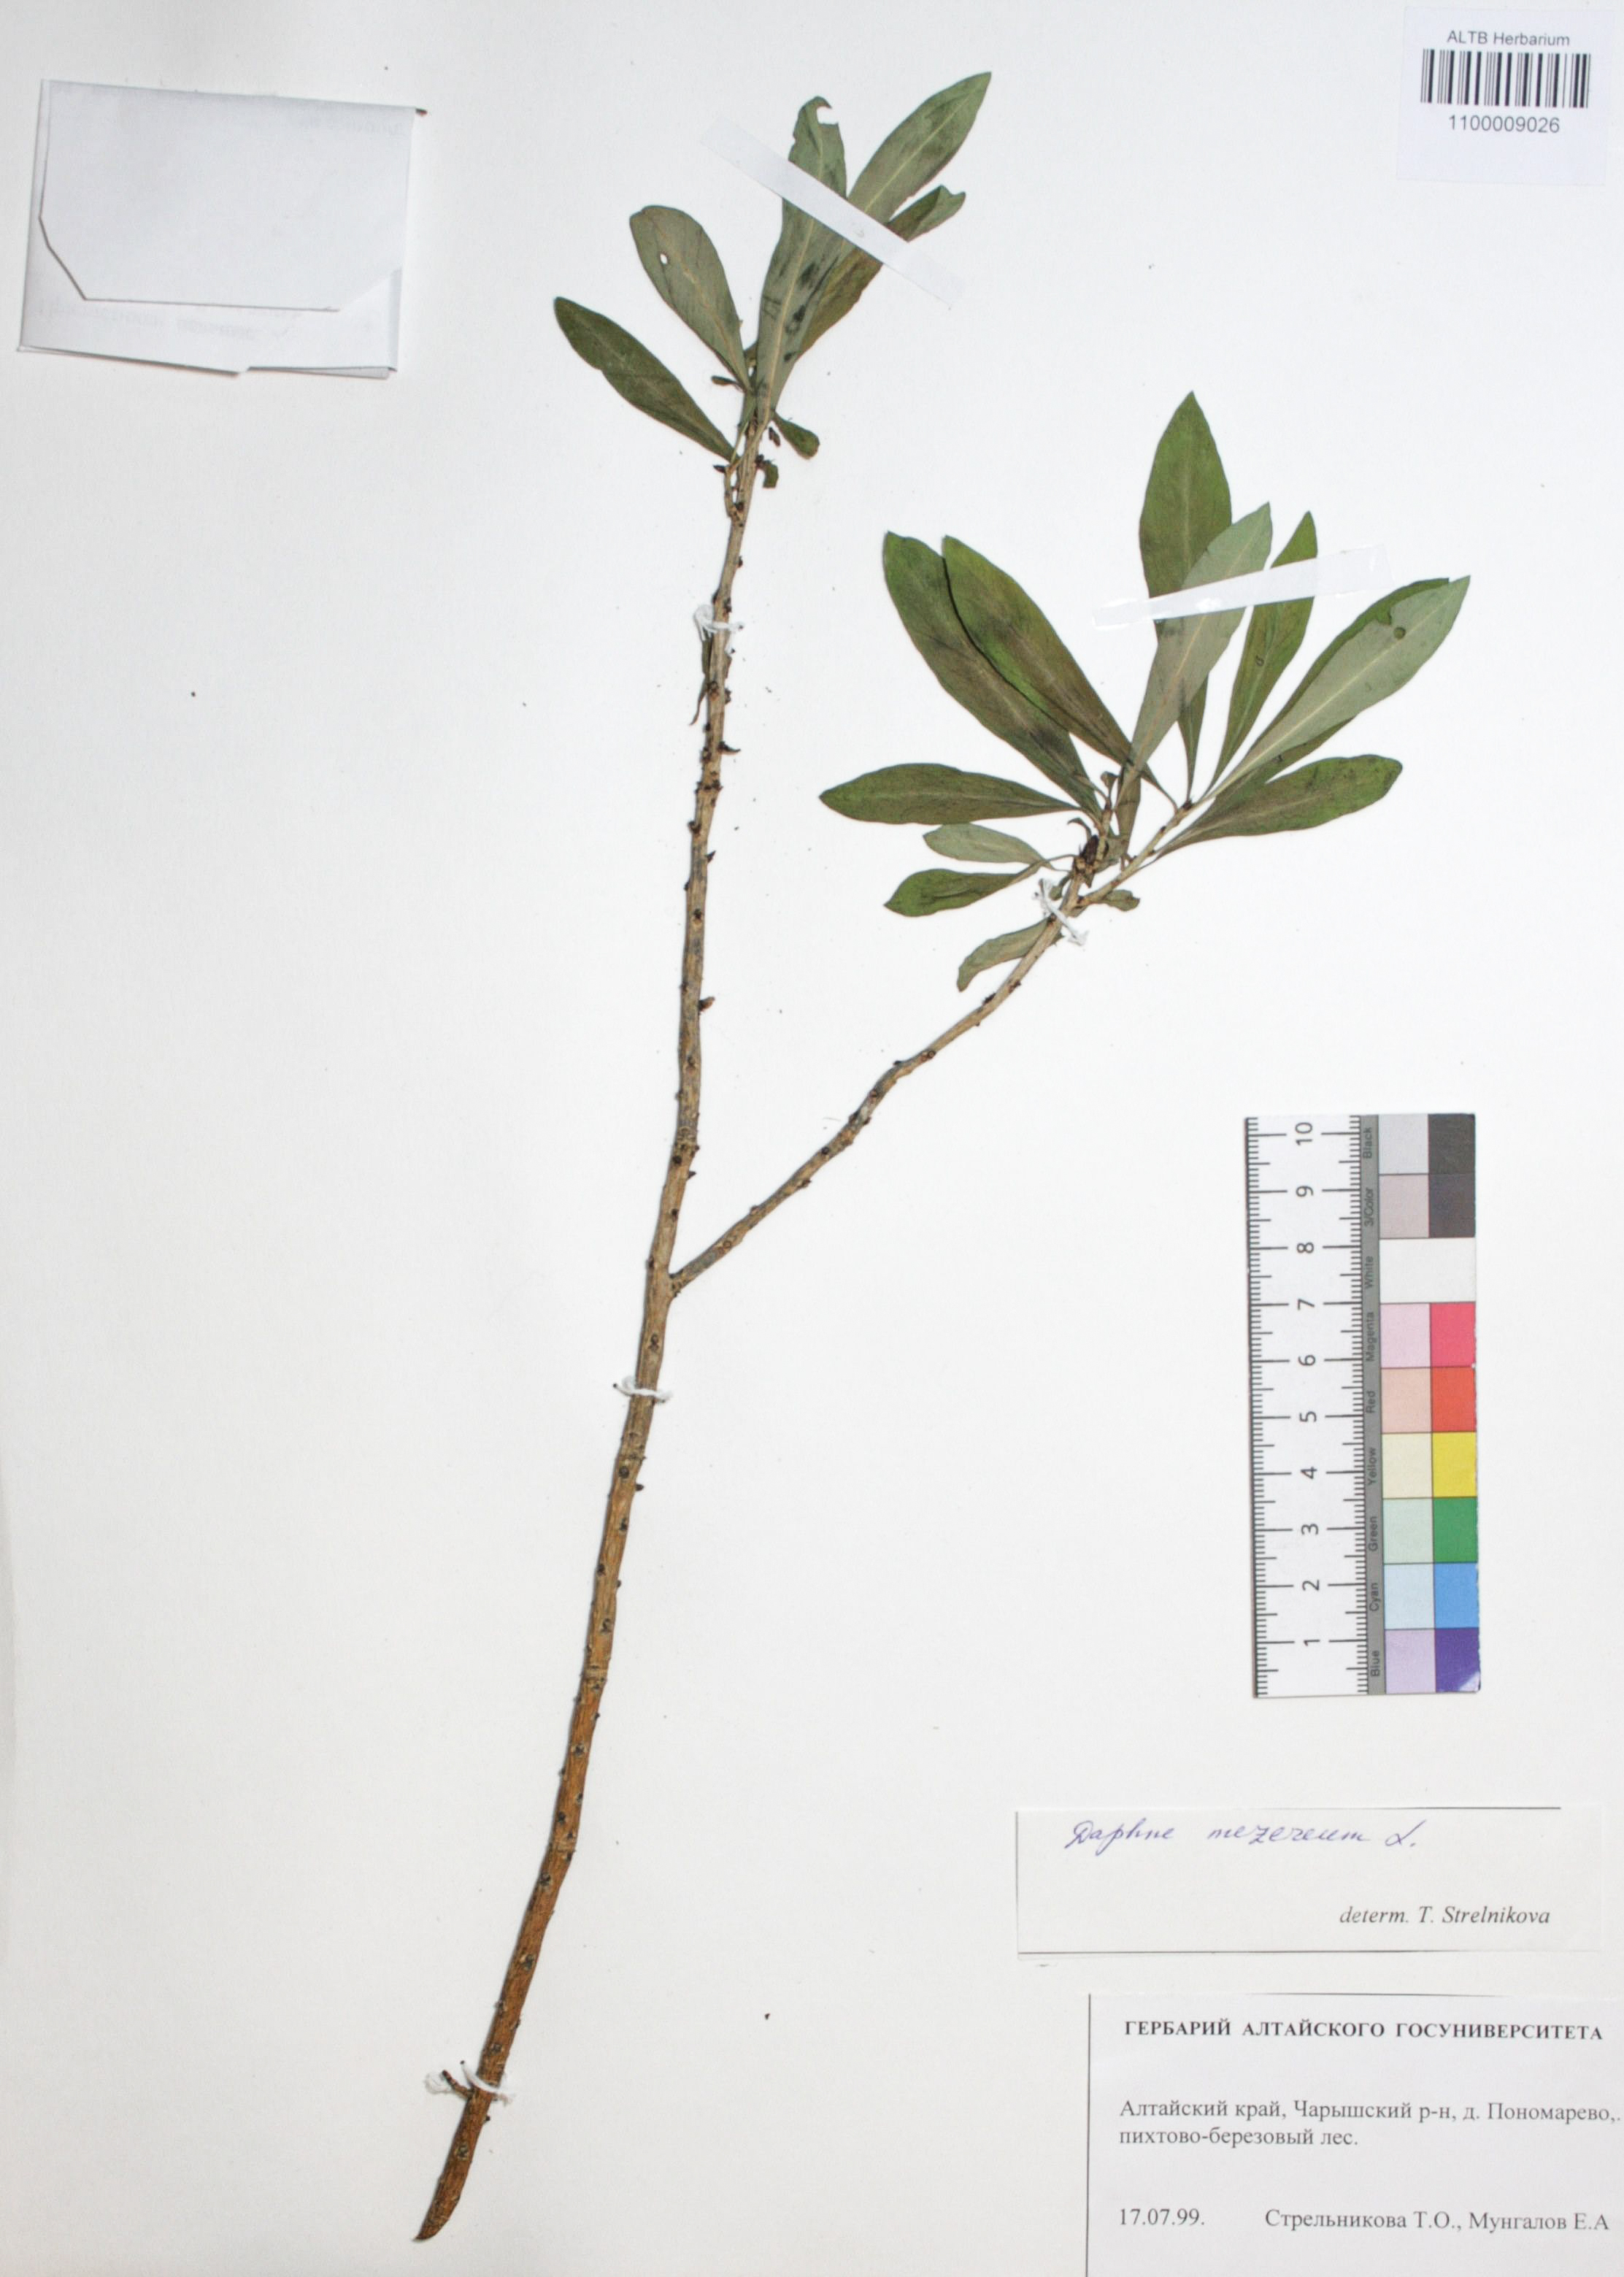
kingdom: Plantae
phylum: Tracheophyta
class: Magnoliopsida
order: Malvales
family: Thymelaeaceae
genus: Daphne
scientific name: Daphne mezereum
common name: Mezereon
